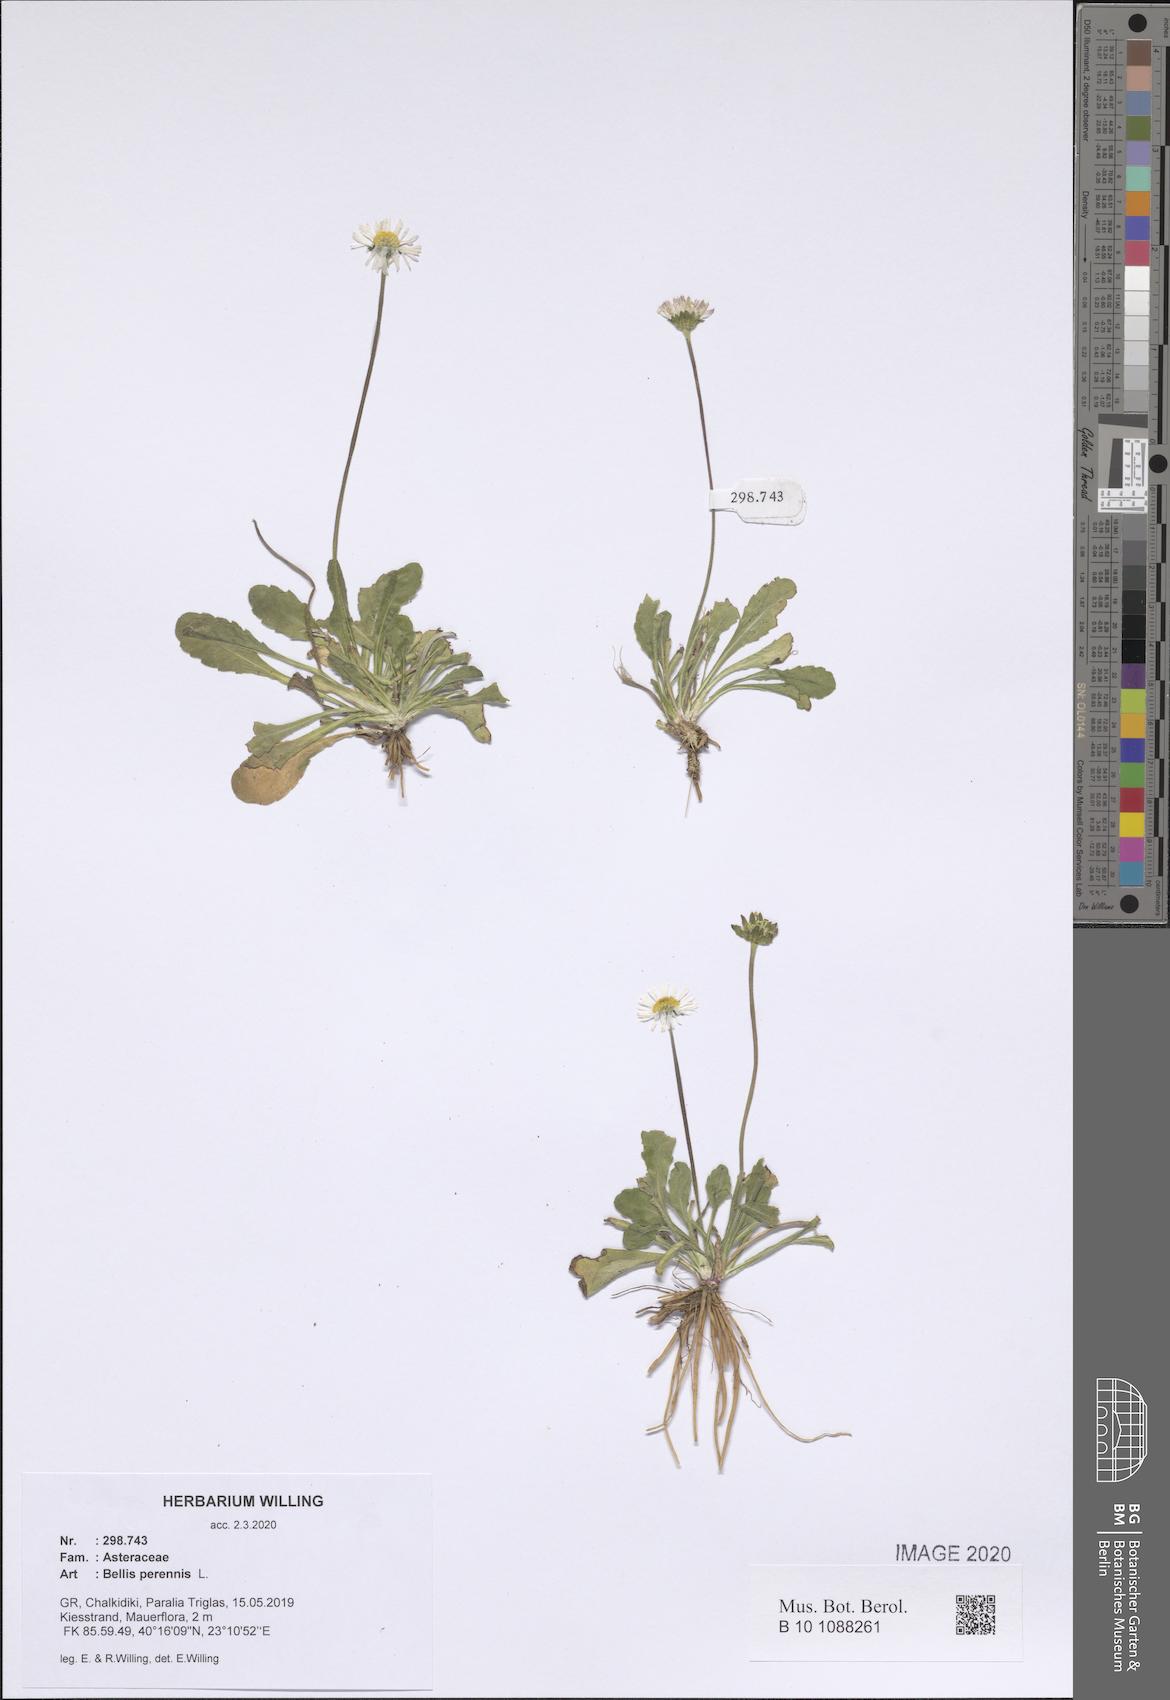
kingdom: Plantae
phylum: Tracheophyta
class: Magnoliopsida
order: Asterales
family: Asteraceae
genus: Bellis
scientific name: Bellis perennis
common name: Lawndaisy
